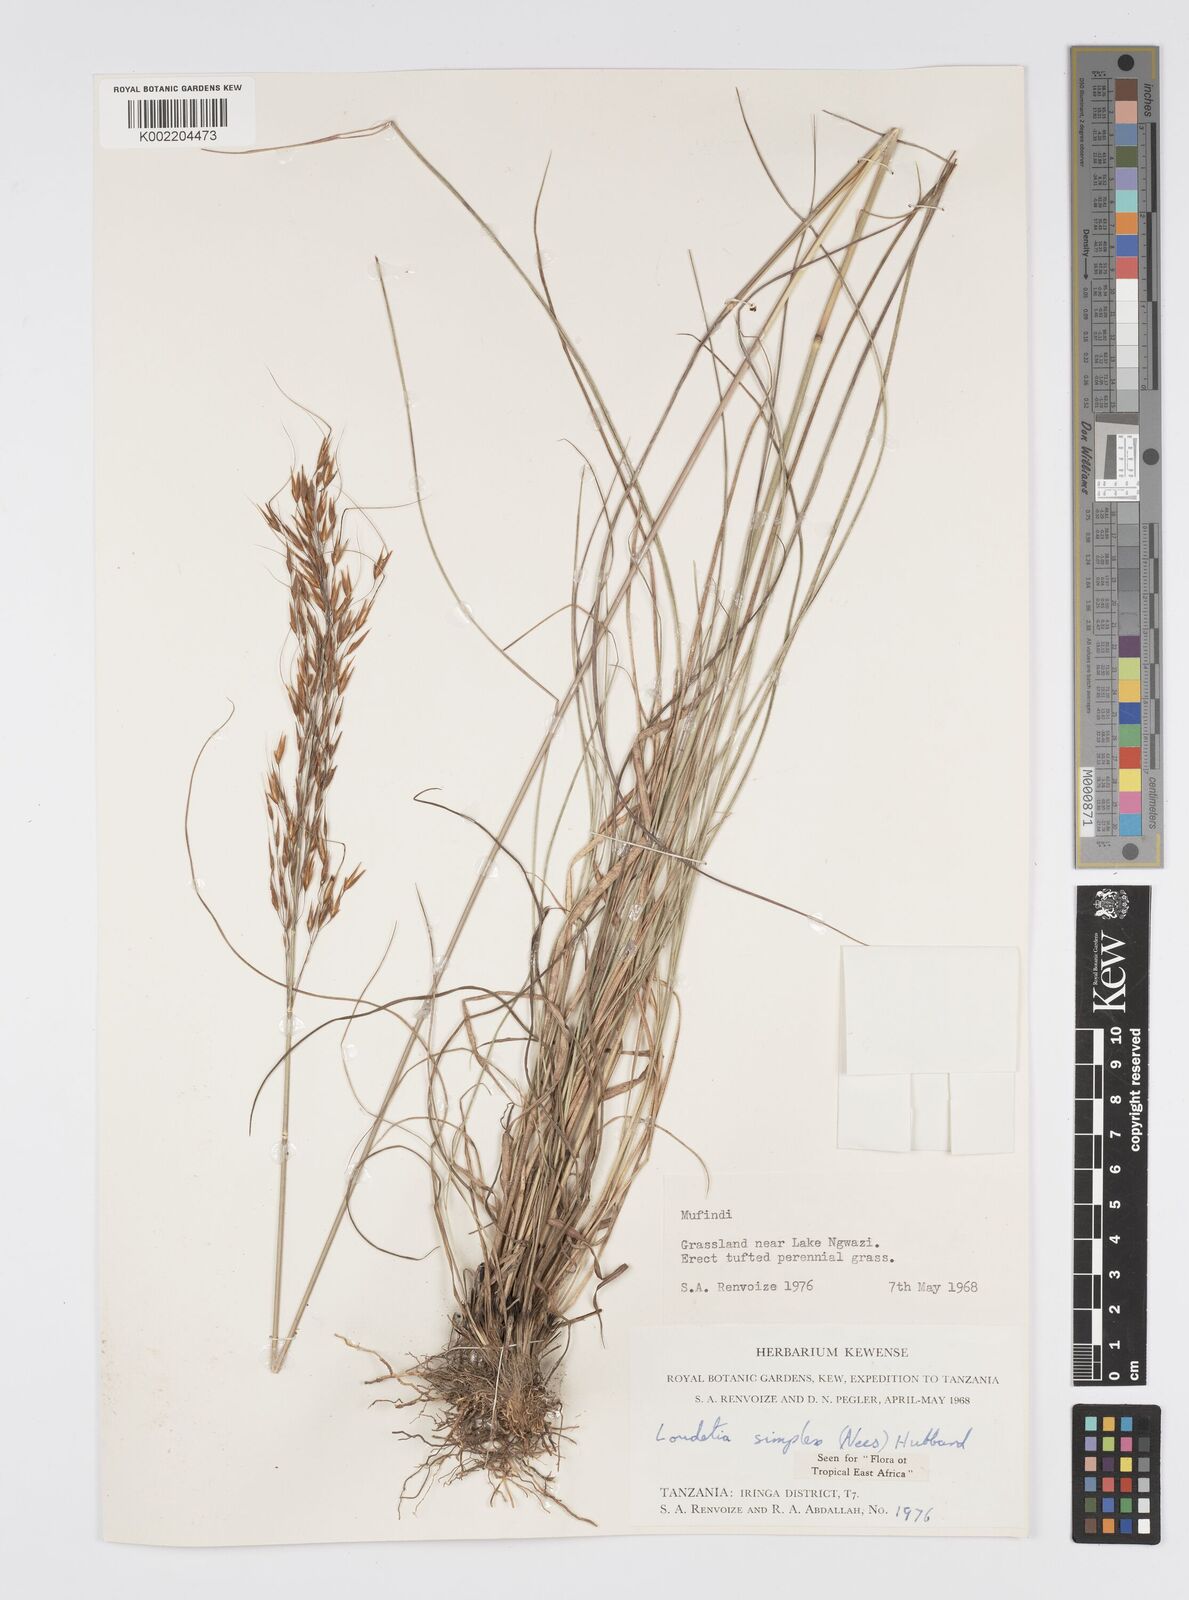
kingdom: Plantae
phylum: Tracheophyta
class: Liliopsida
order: Poales
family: Poaceae
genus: Loudetia
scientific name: Loudetia simplex
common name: Common russet grass
